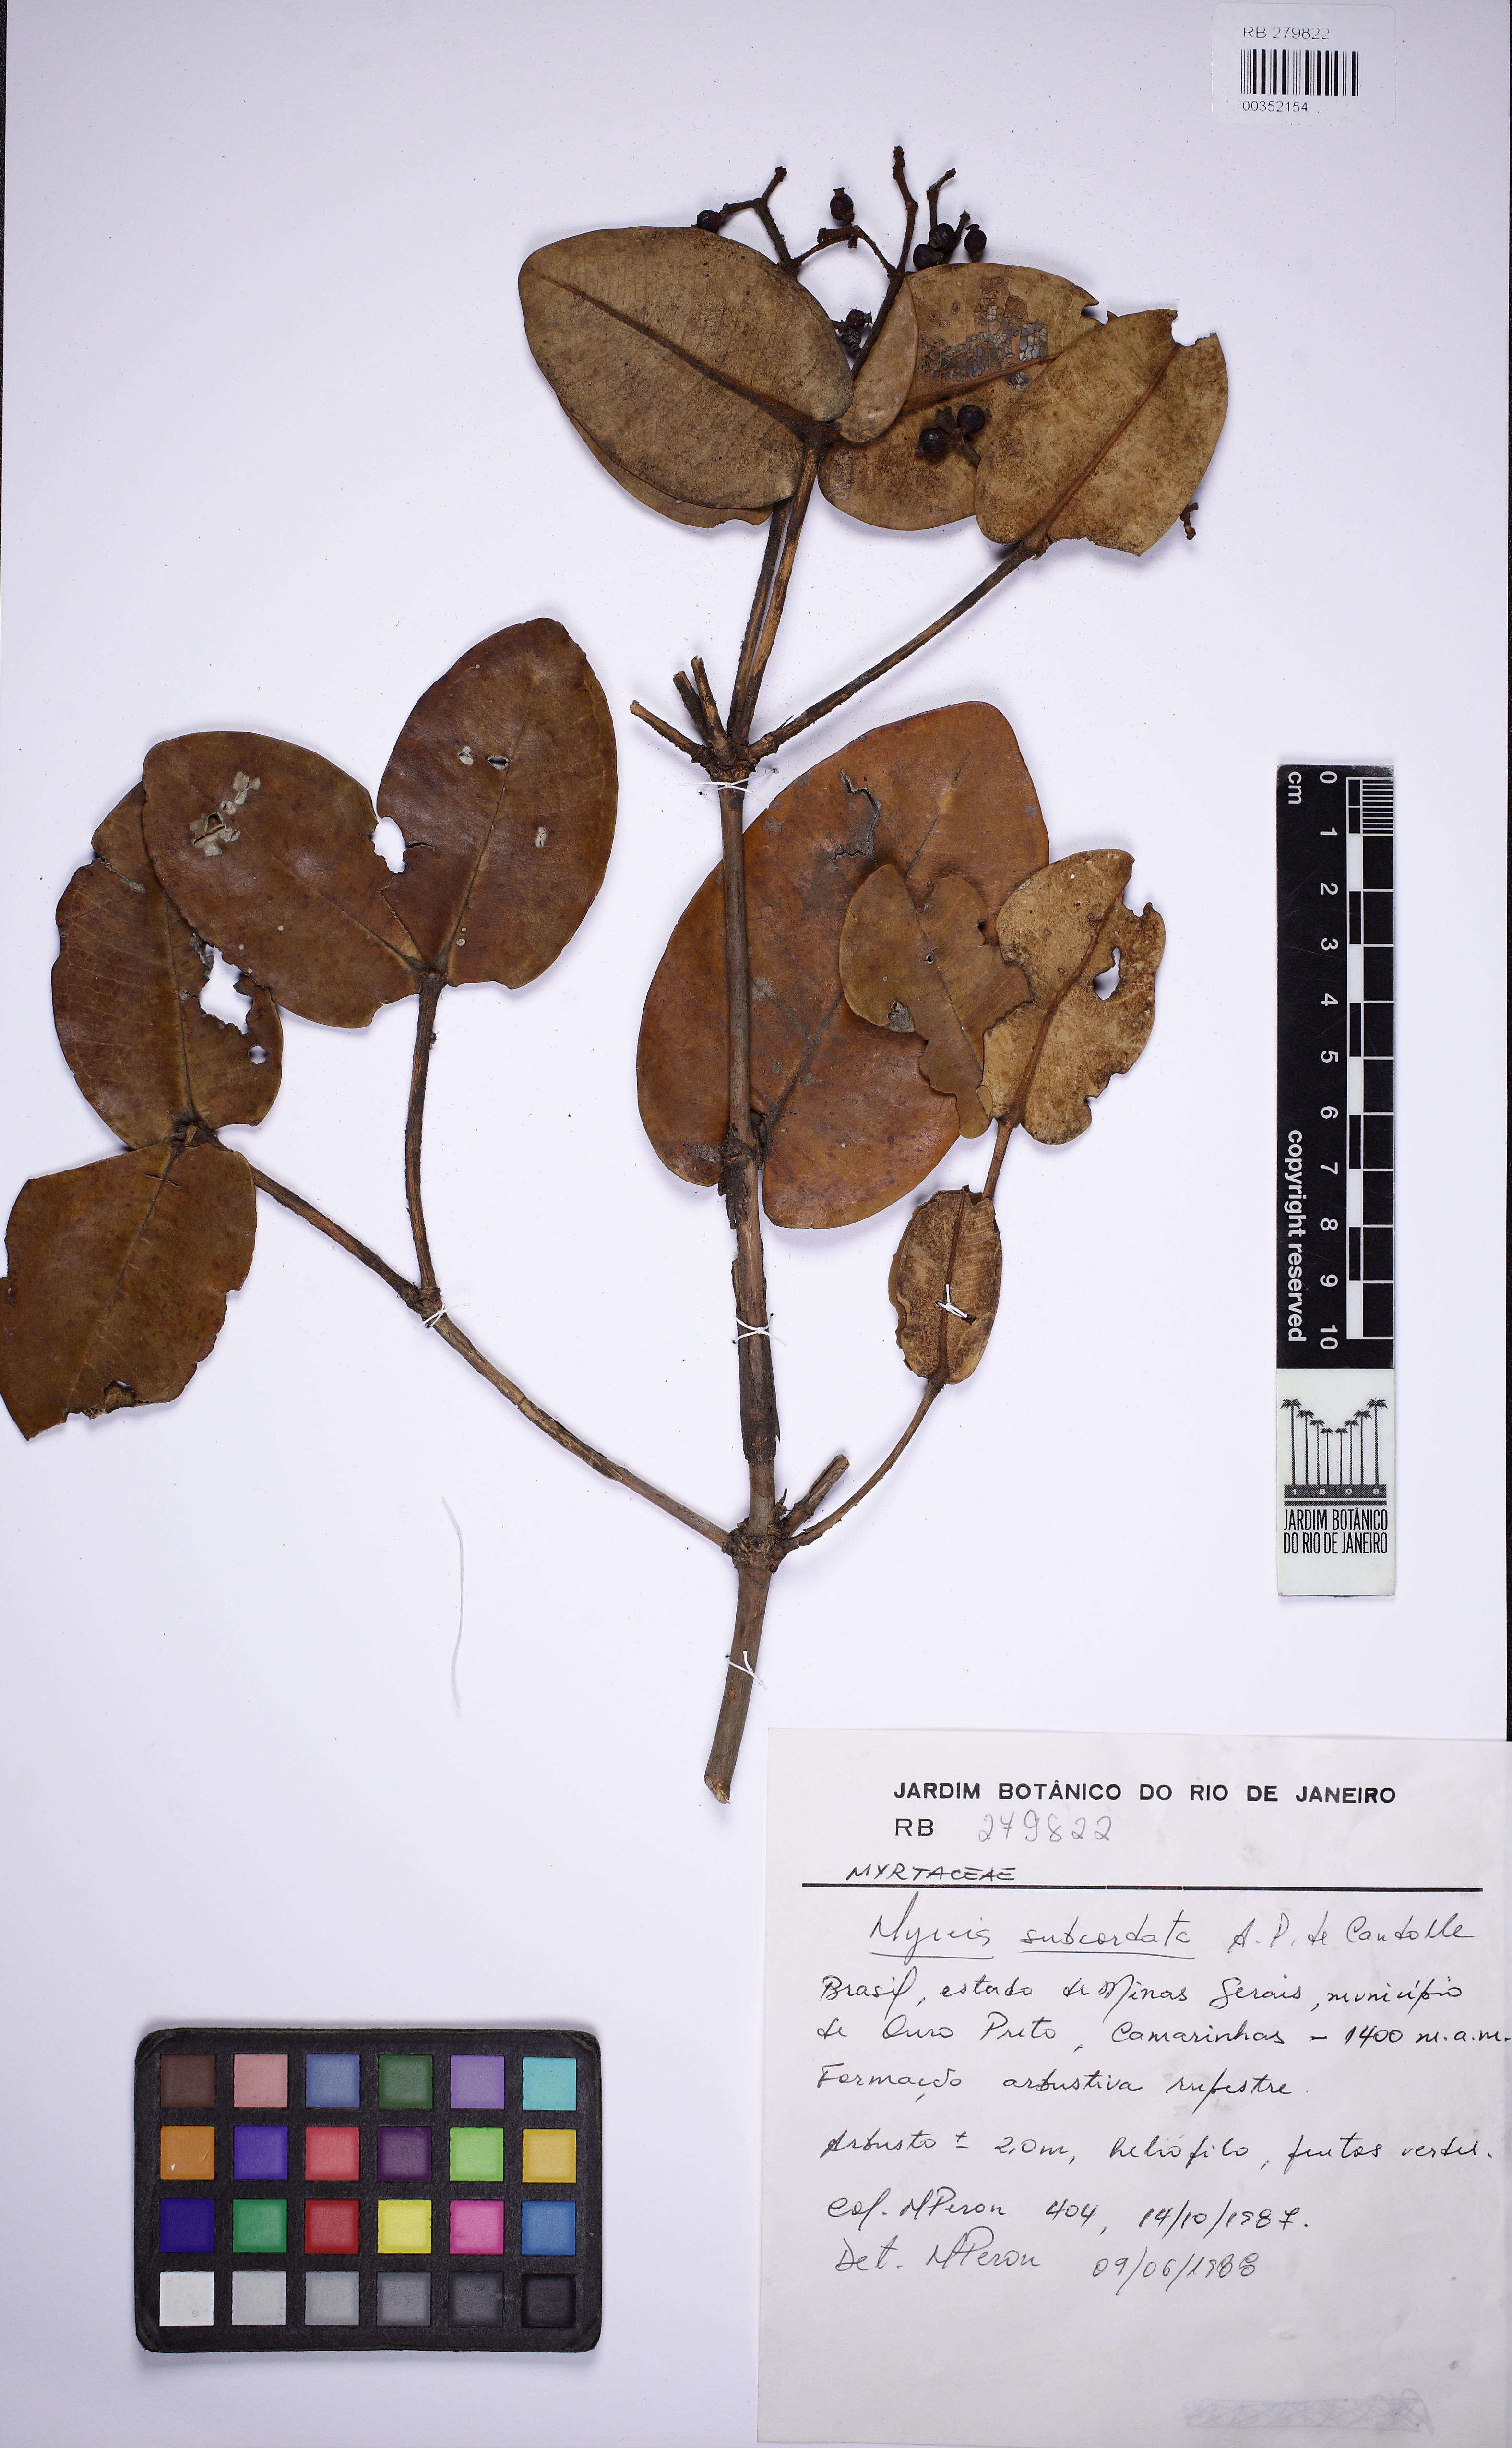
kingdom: Plantae
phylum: Tracheophyta
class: Magnoliopsida
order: Myrtales
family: Myrtaceae
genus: Myrcia
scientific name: Myrcia subcordata
